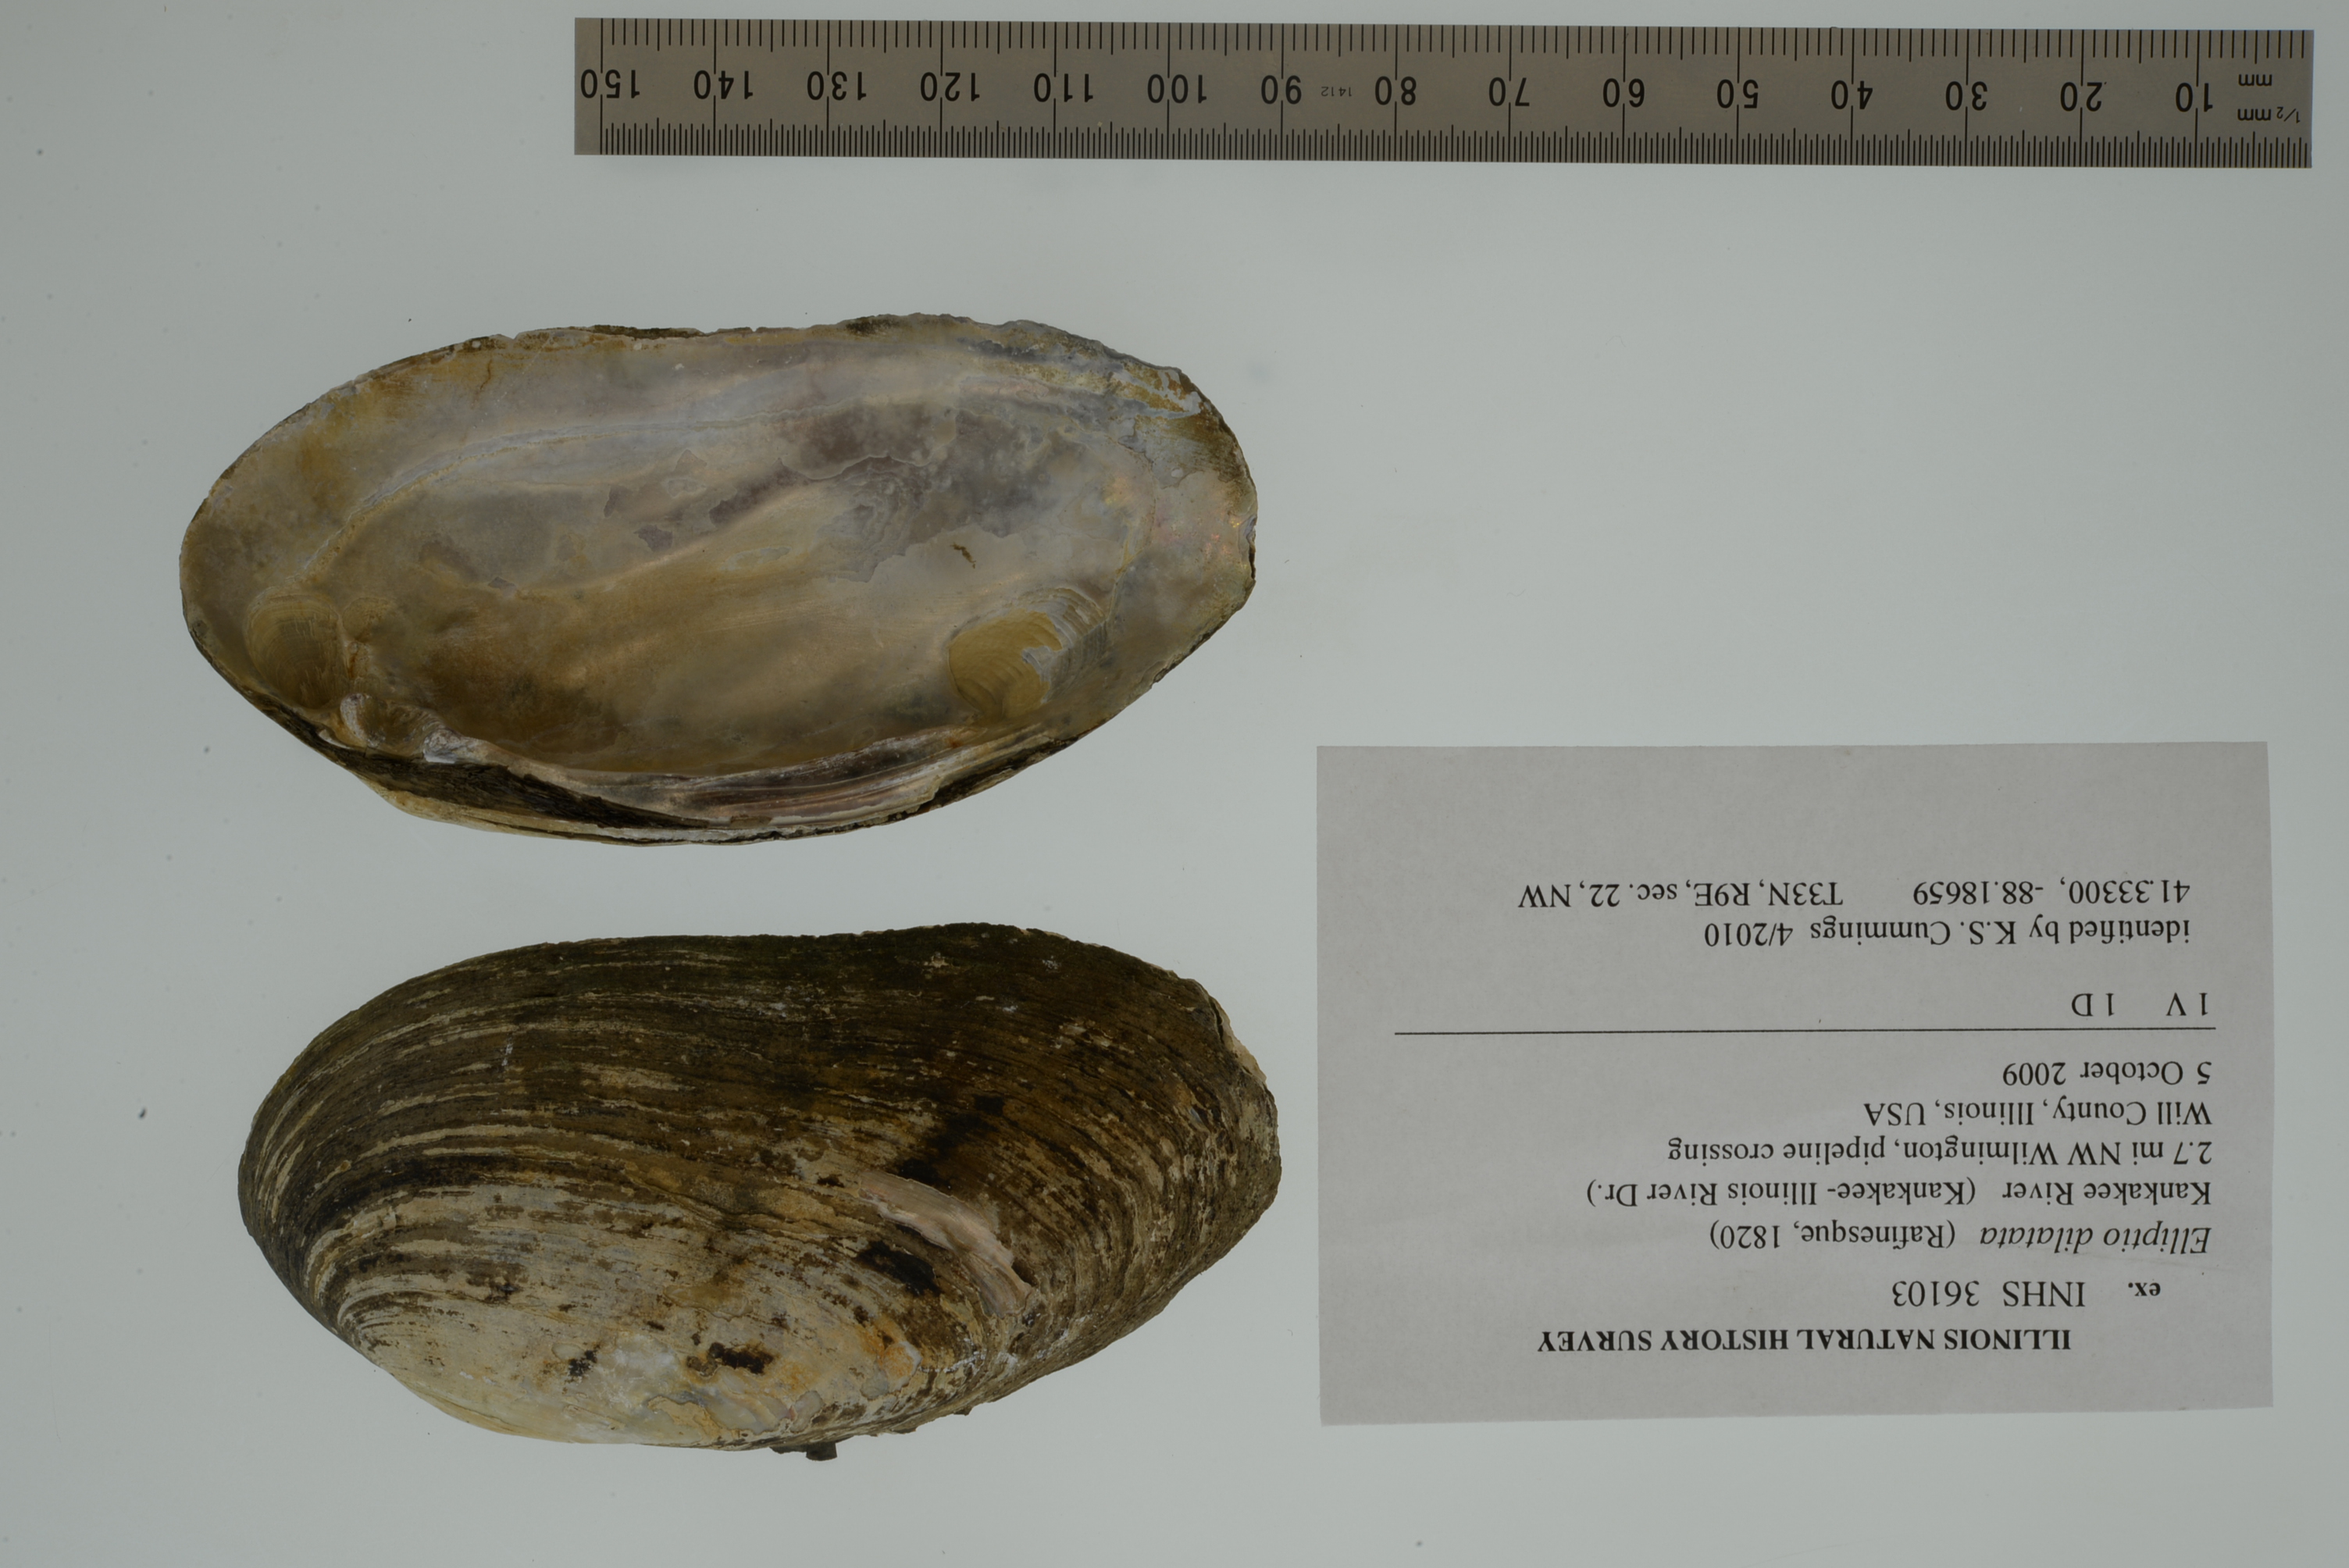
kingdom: Animalia
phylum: Mollusca
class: Bivalvia
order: Unionida
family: Unionidae
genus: Eurynia
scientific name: Eurynia dilatata
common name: Spike
